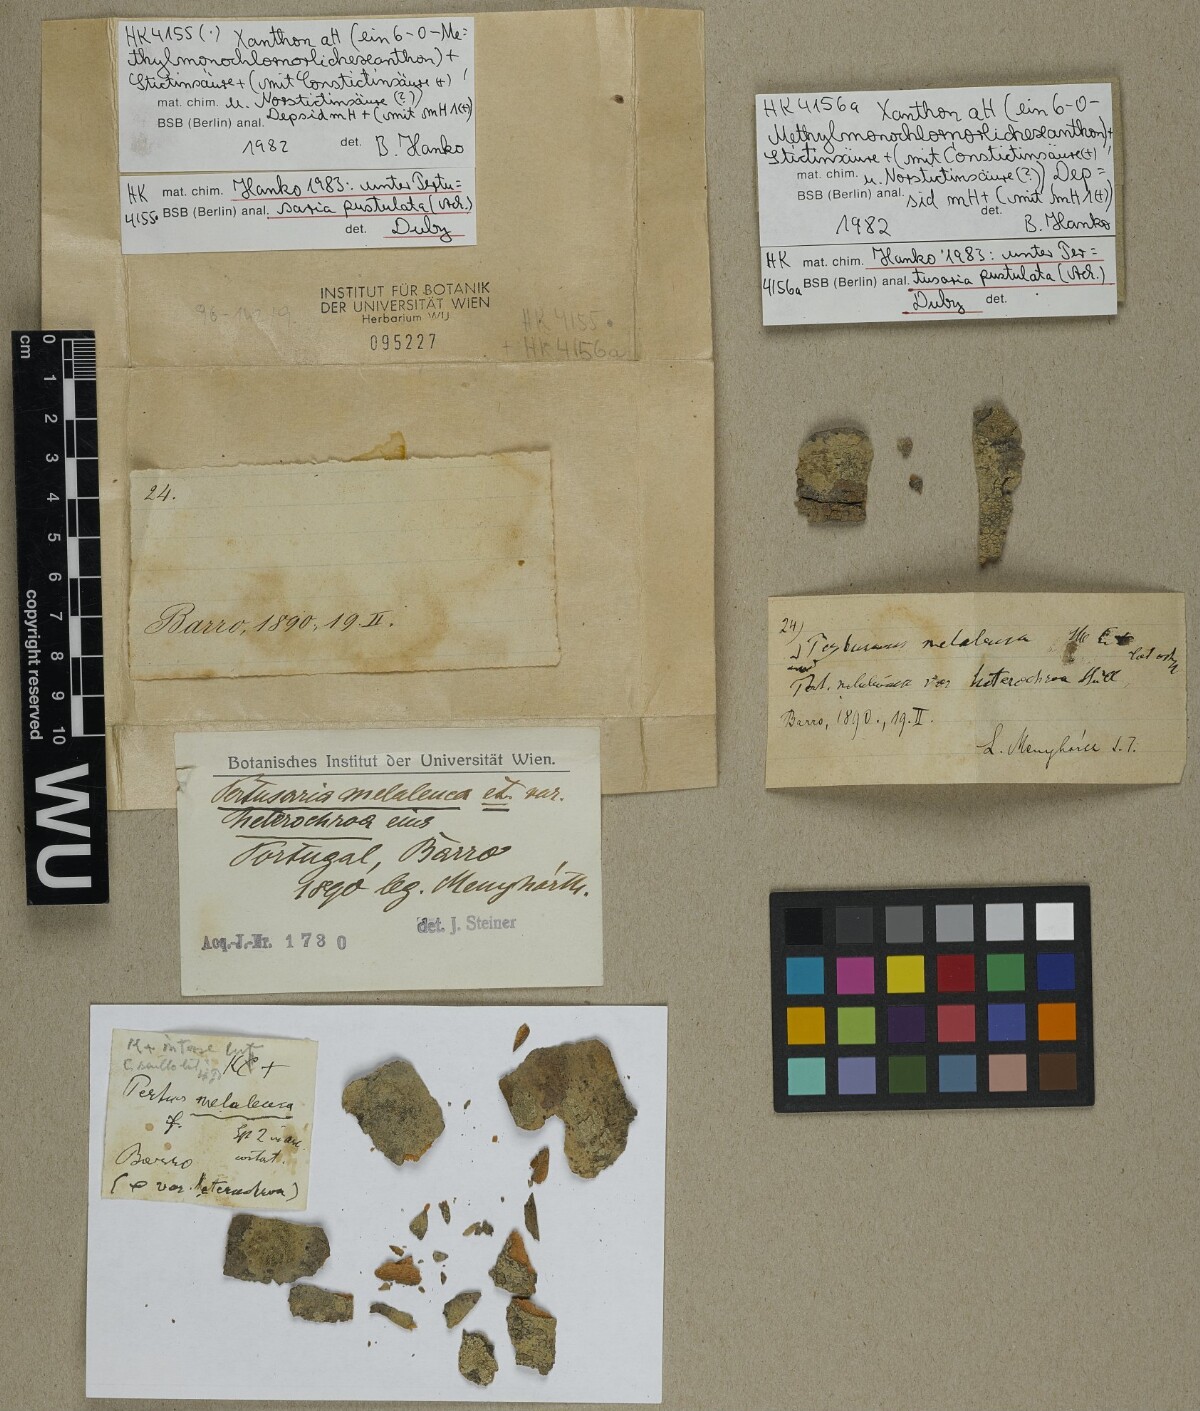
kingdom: Fungi
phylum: Ascomycota
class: Lecanoromycetes
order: Pertusariales
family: Pertusariaceae
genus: Pertusaria
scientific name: Pertusaria pustulata
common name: Branch bumps
